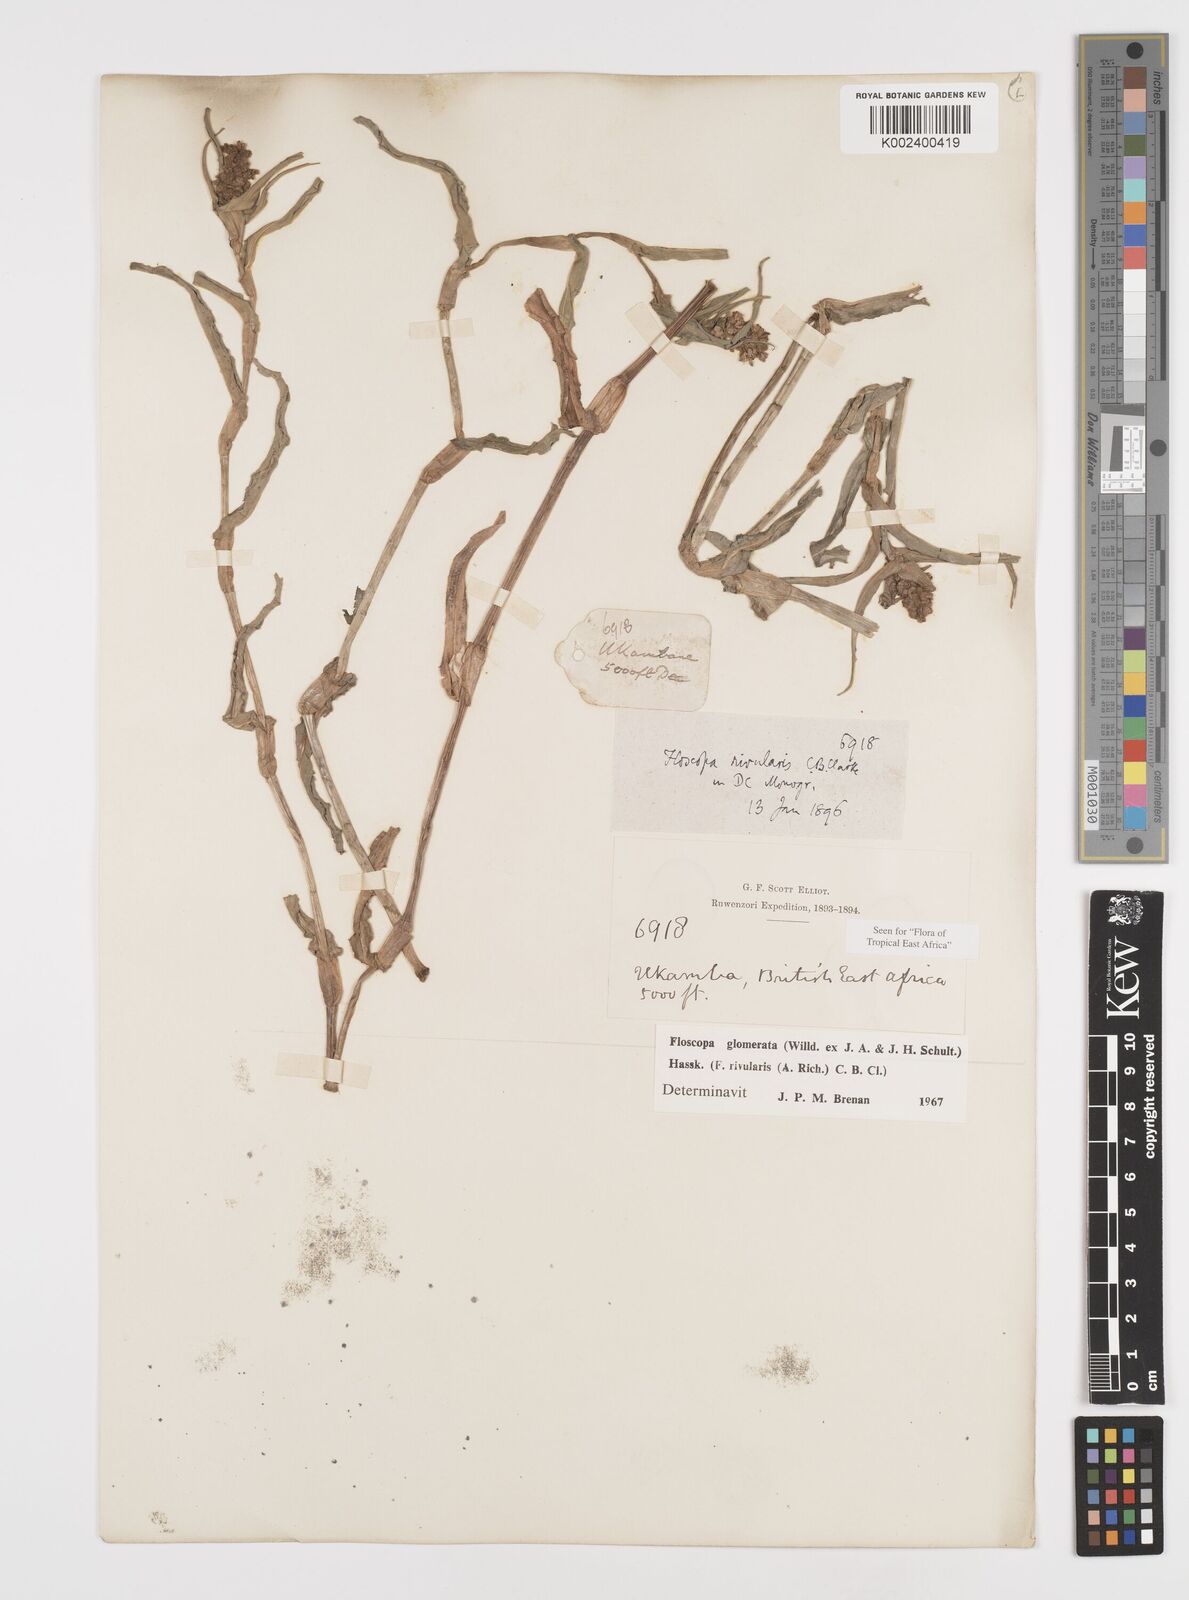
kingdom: Plantae
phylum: Tracheophyta
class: Liliopsida
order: Commelinales
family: Commelinaceae
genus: Floscopa
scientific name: Floscopa glomerata
